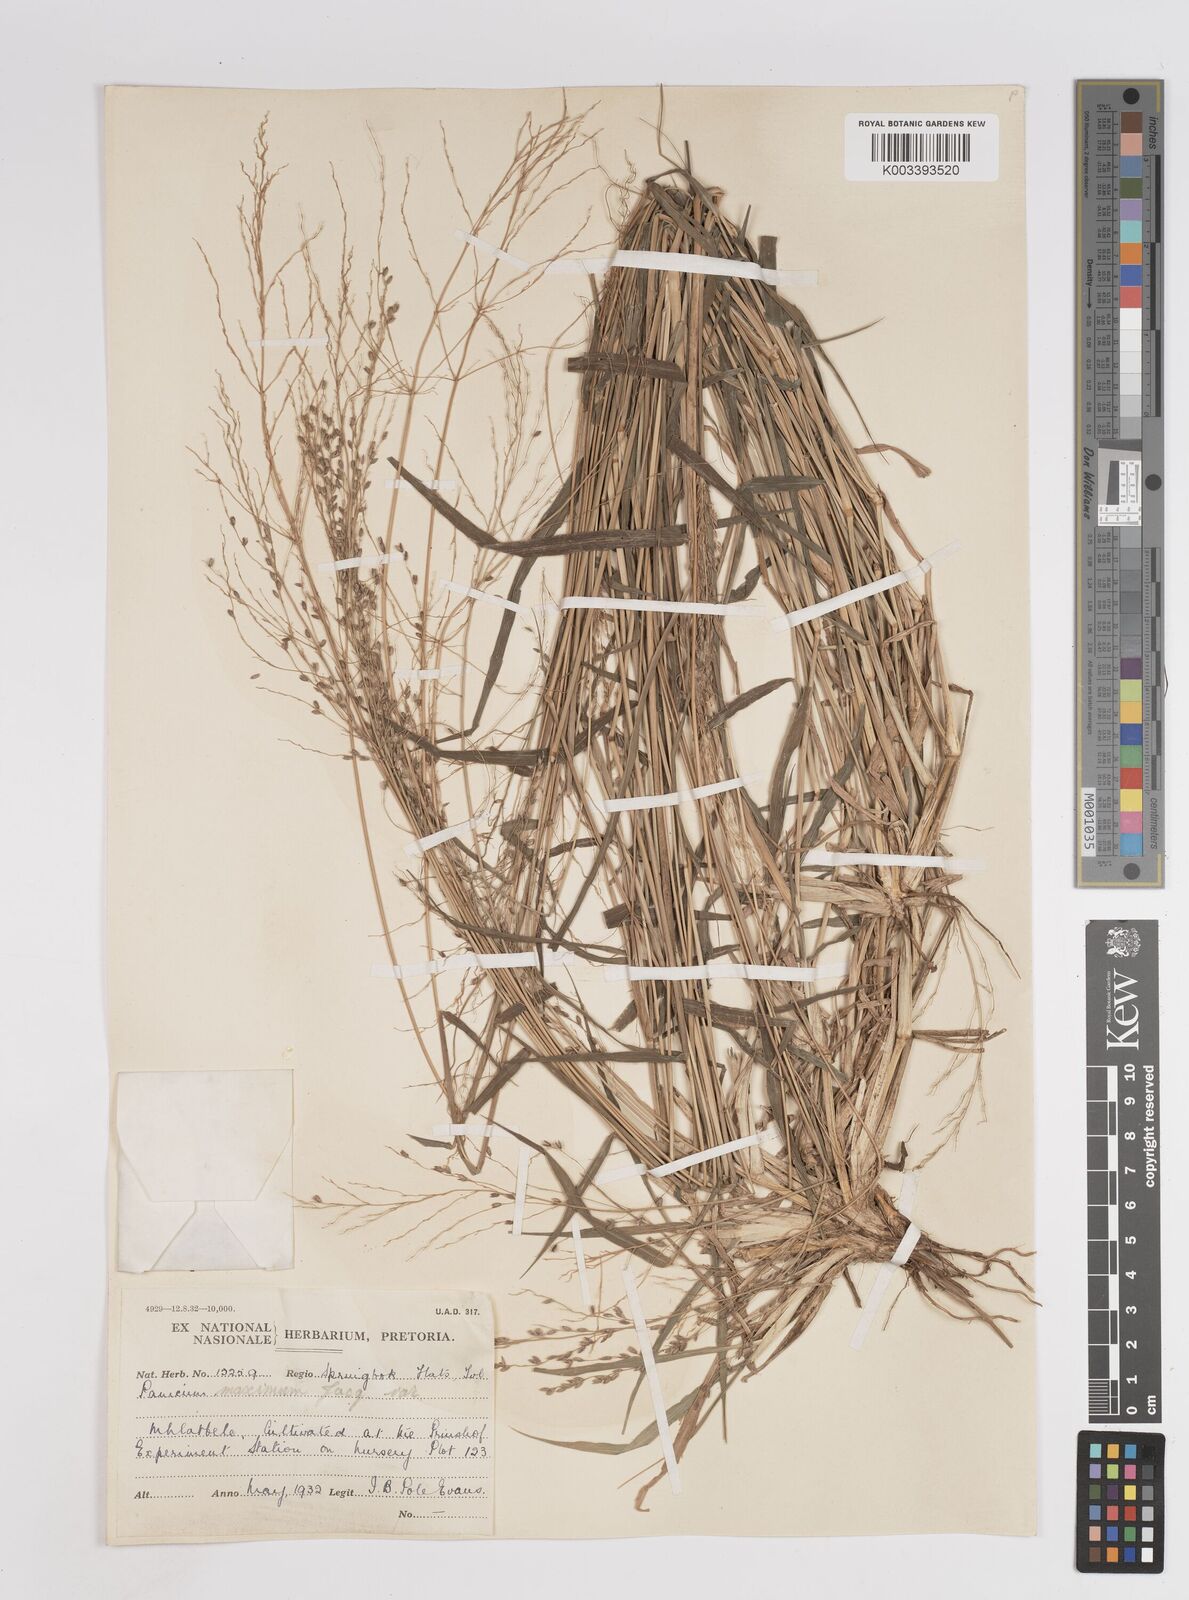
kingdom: Plantae
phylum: Tracheophyta
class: Liliopsida
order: Poales
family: Poaceae
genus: Megathyrsus
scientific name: Megathyrsus maximus
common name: Guineagrass
